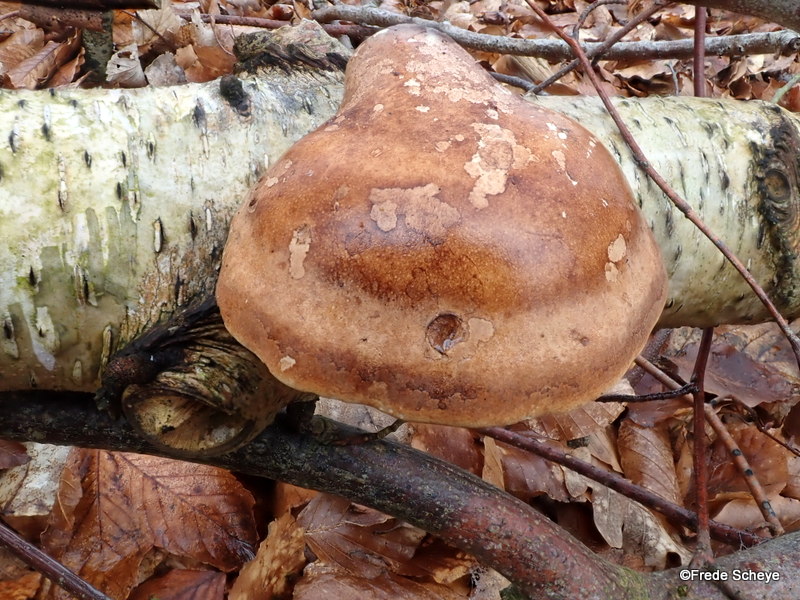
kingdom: Fungi
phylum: Basidiomycota
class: Agaricomycetes
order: Polyporales
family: Fomitopsidaceae
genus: Fomitopsis
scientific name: Fomitopsis betulina
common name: birkeporesvamp
